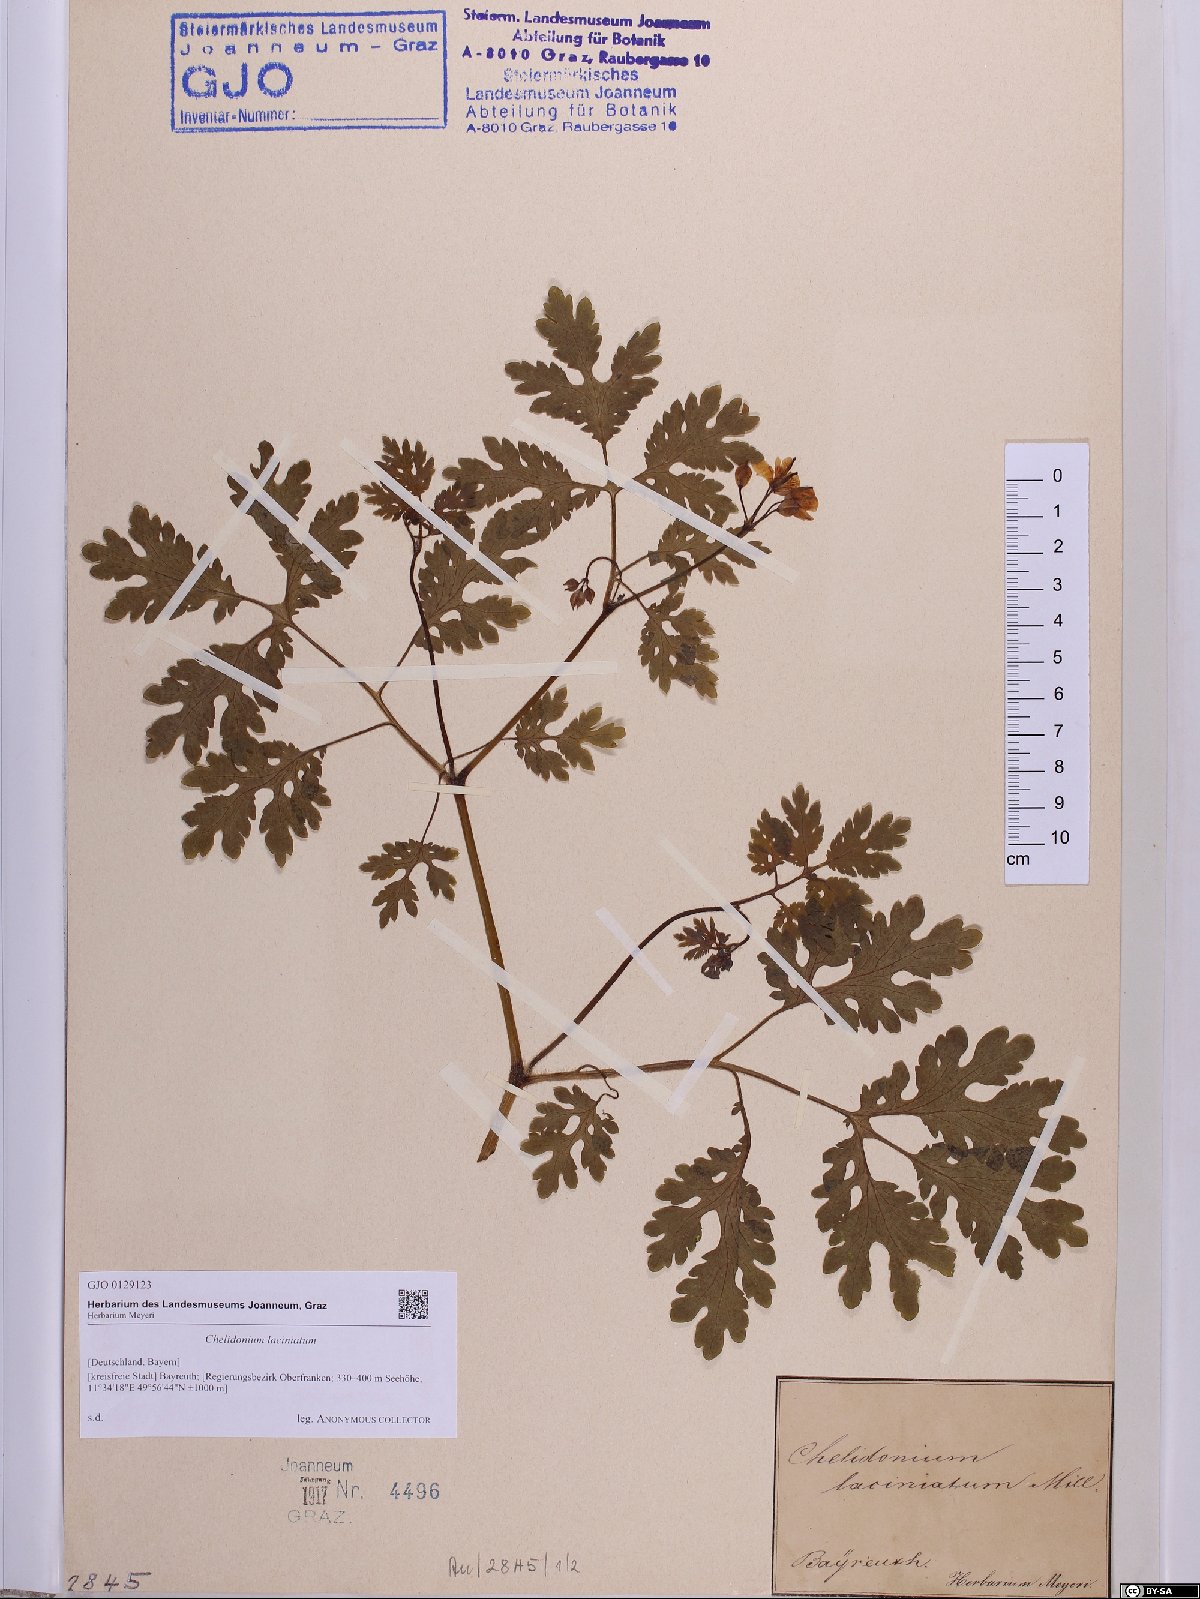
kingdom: Plantae
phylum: Tracheophyta
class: Magnoliopsida
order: Ranunculales
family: Papaveraceae
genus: Chelidonium
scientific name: Chelidonium majus
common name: Greater celandine
